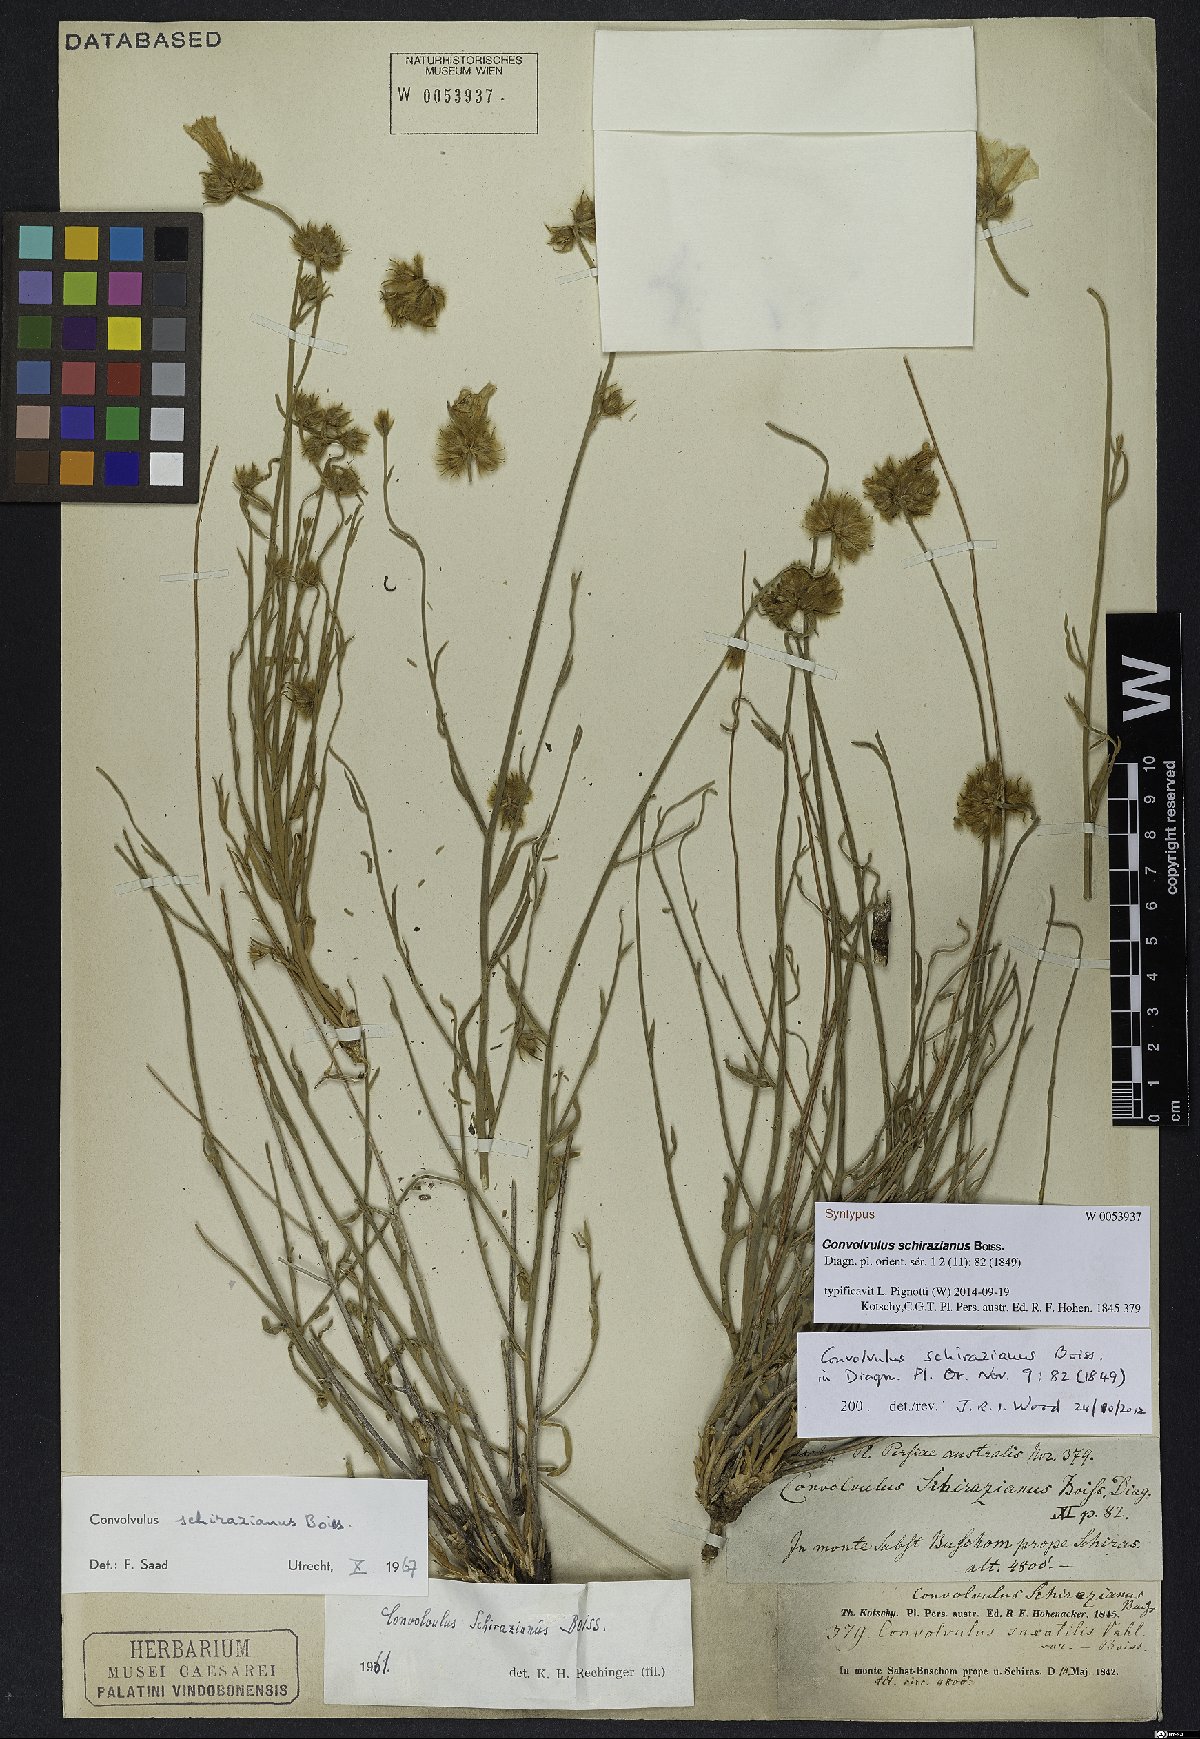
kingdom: Plantae
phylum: Tracheophyta
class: Magnoliopsida
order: Solanales
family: Convolvulaceae
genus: Convolvulus
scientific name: Convolvulus schirazianus
